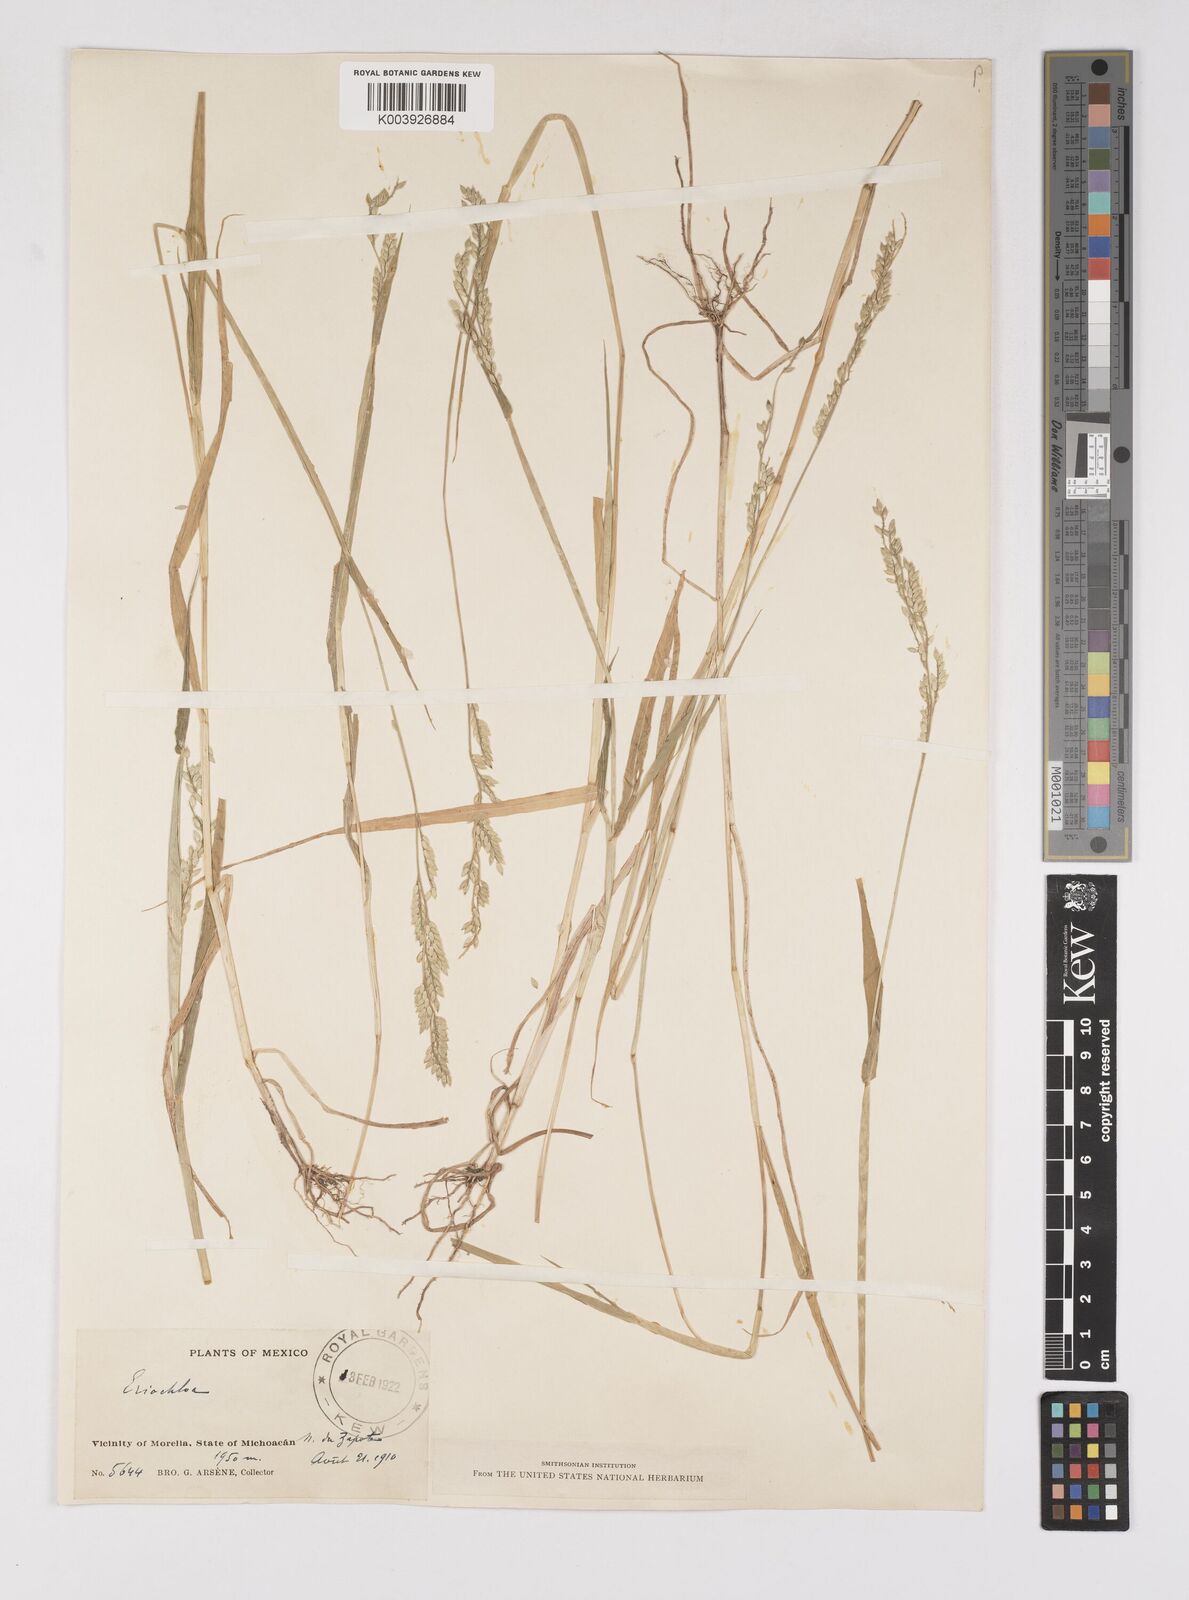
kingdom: Plantae
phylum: Tracheophyta
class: Liliopsida
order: Poales
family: Poaceae
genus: Eriochloa
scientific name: Eriochloa
